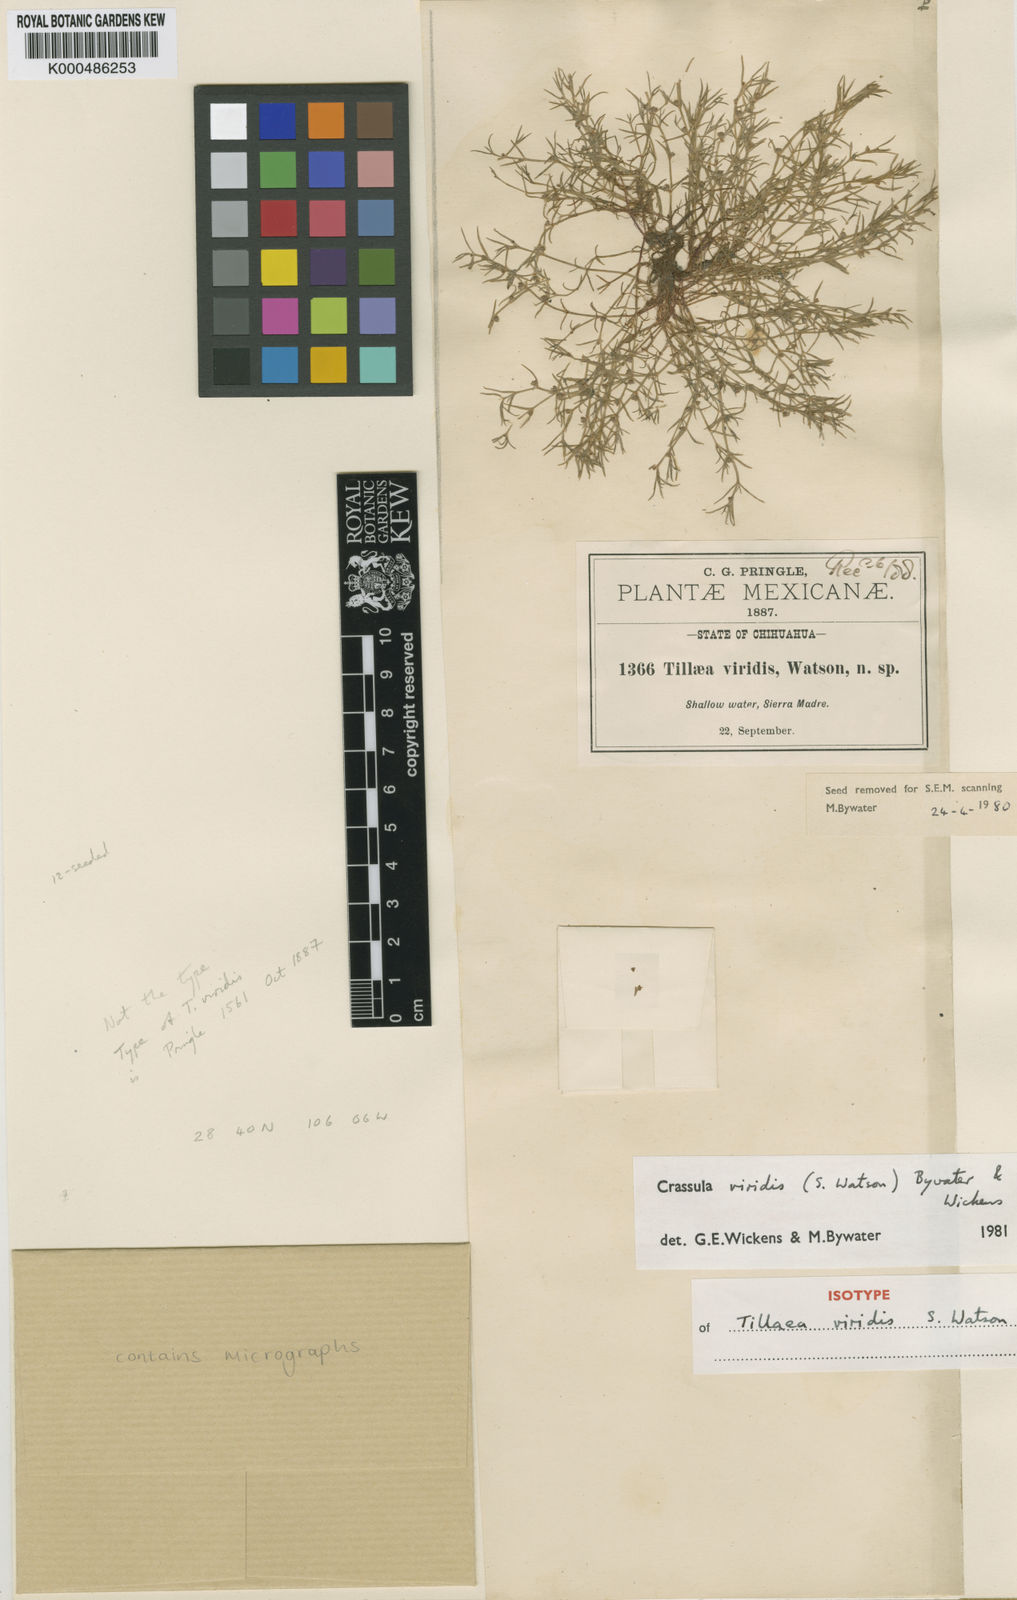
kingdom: Plantae
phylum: Tracheophyta
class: Magnoliopsida
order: Saxifragales
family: Crassulaceae
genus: Crassula
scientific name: Crassula viridis
